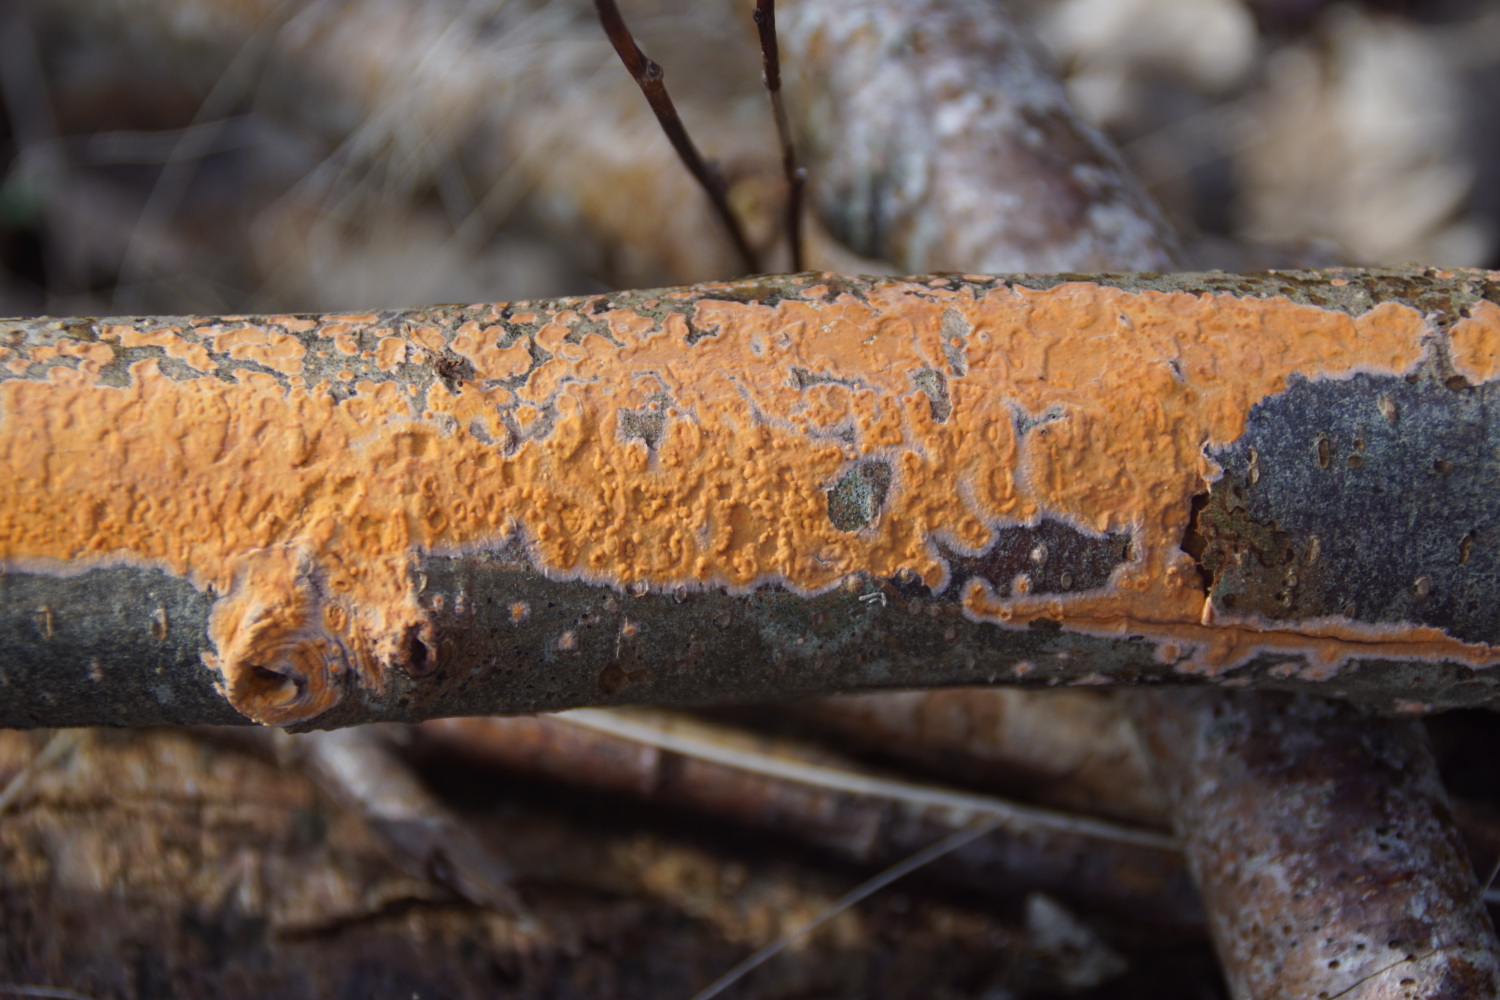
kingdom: Fungi
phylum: Basidiomycota
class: Agaricomycetes
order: Russulales
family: Peniophoraceae
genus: Peniophora
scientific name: Peniophora incarnata
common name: laksefarvet voksskind
